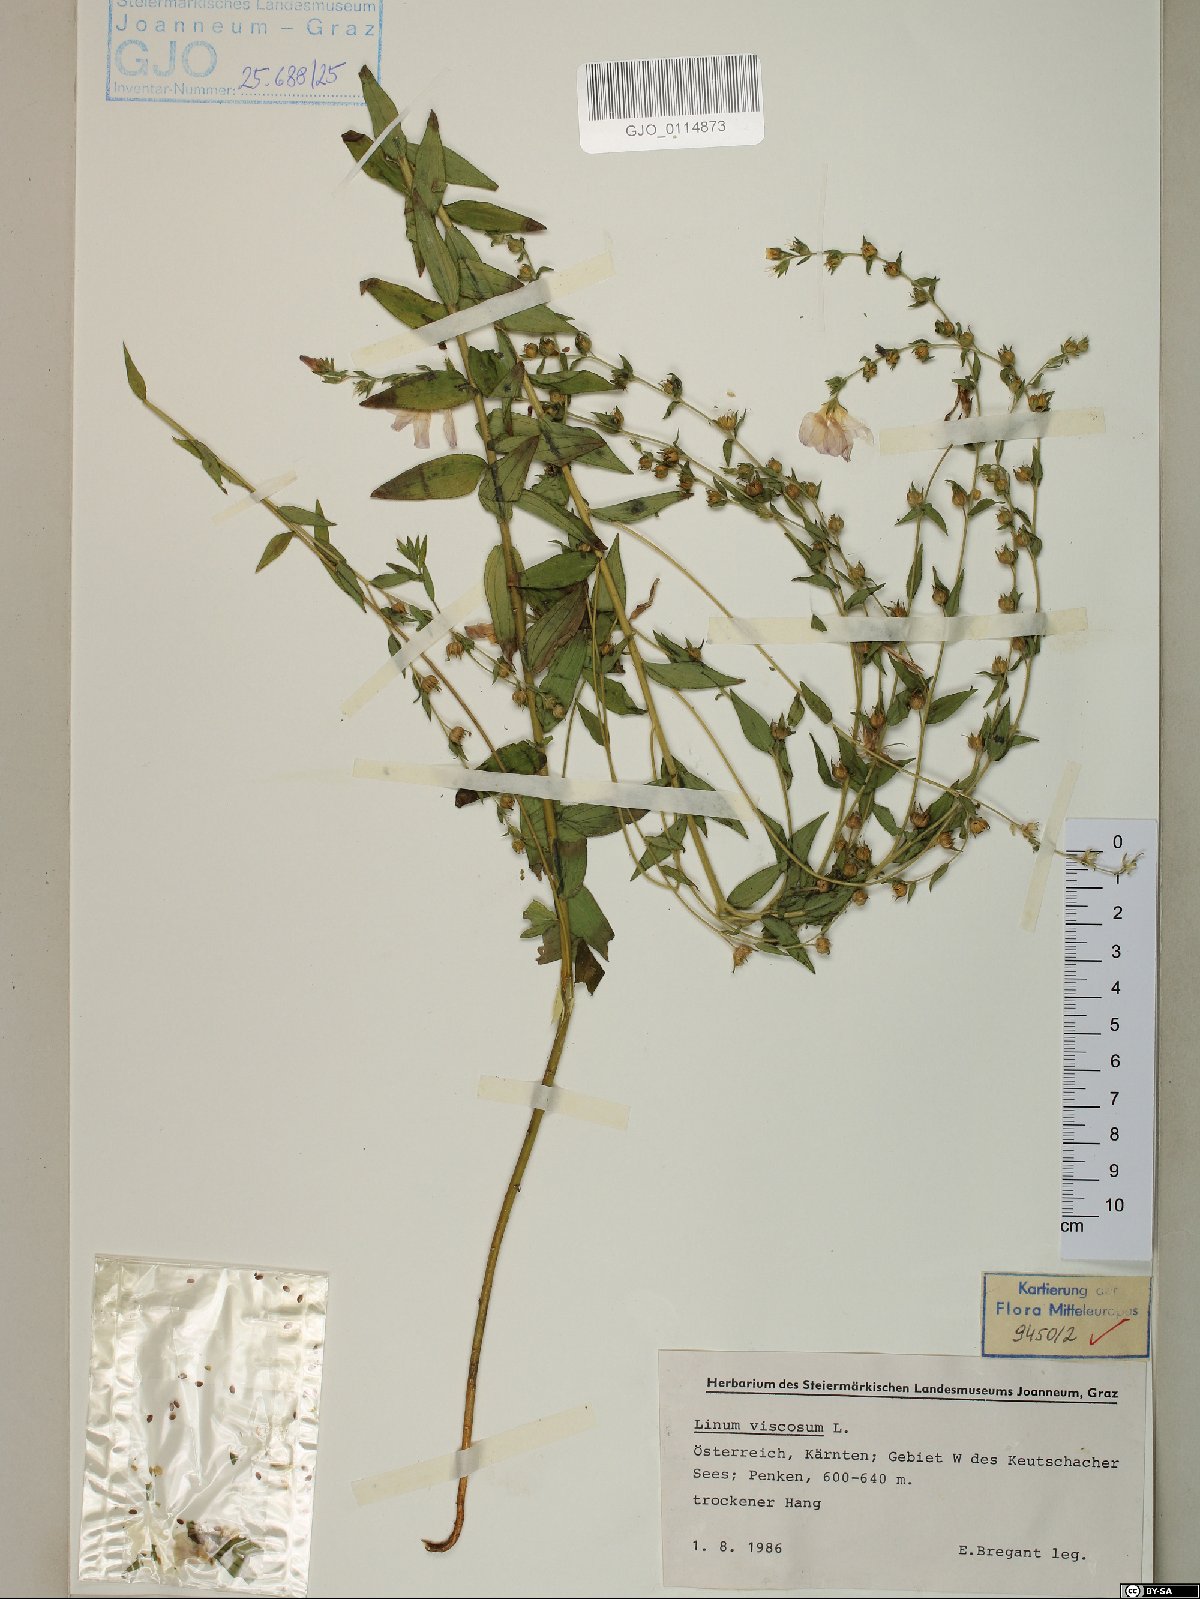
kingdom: Plantae
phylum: Tracheophyta
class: Magnoliopsida
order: Malpighiales
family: Linaceae
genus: Linum
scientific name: Linum viscosum
